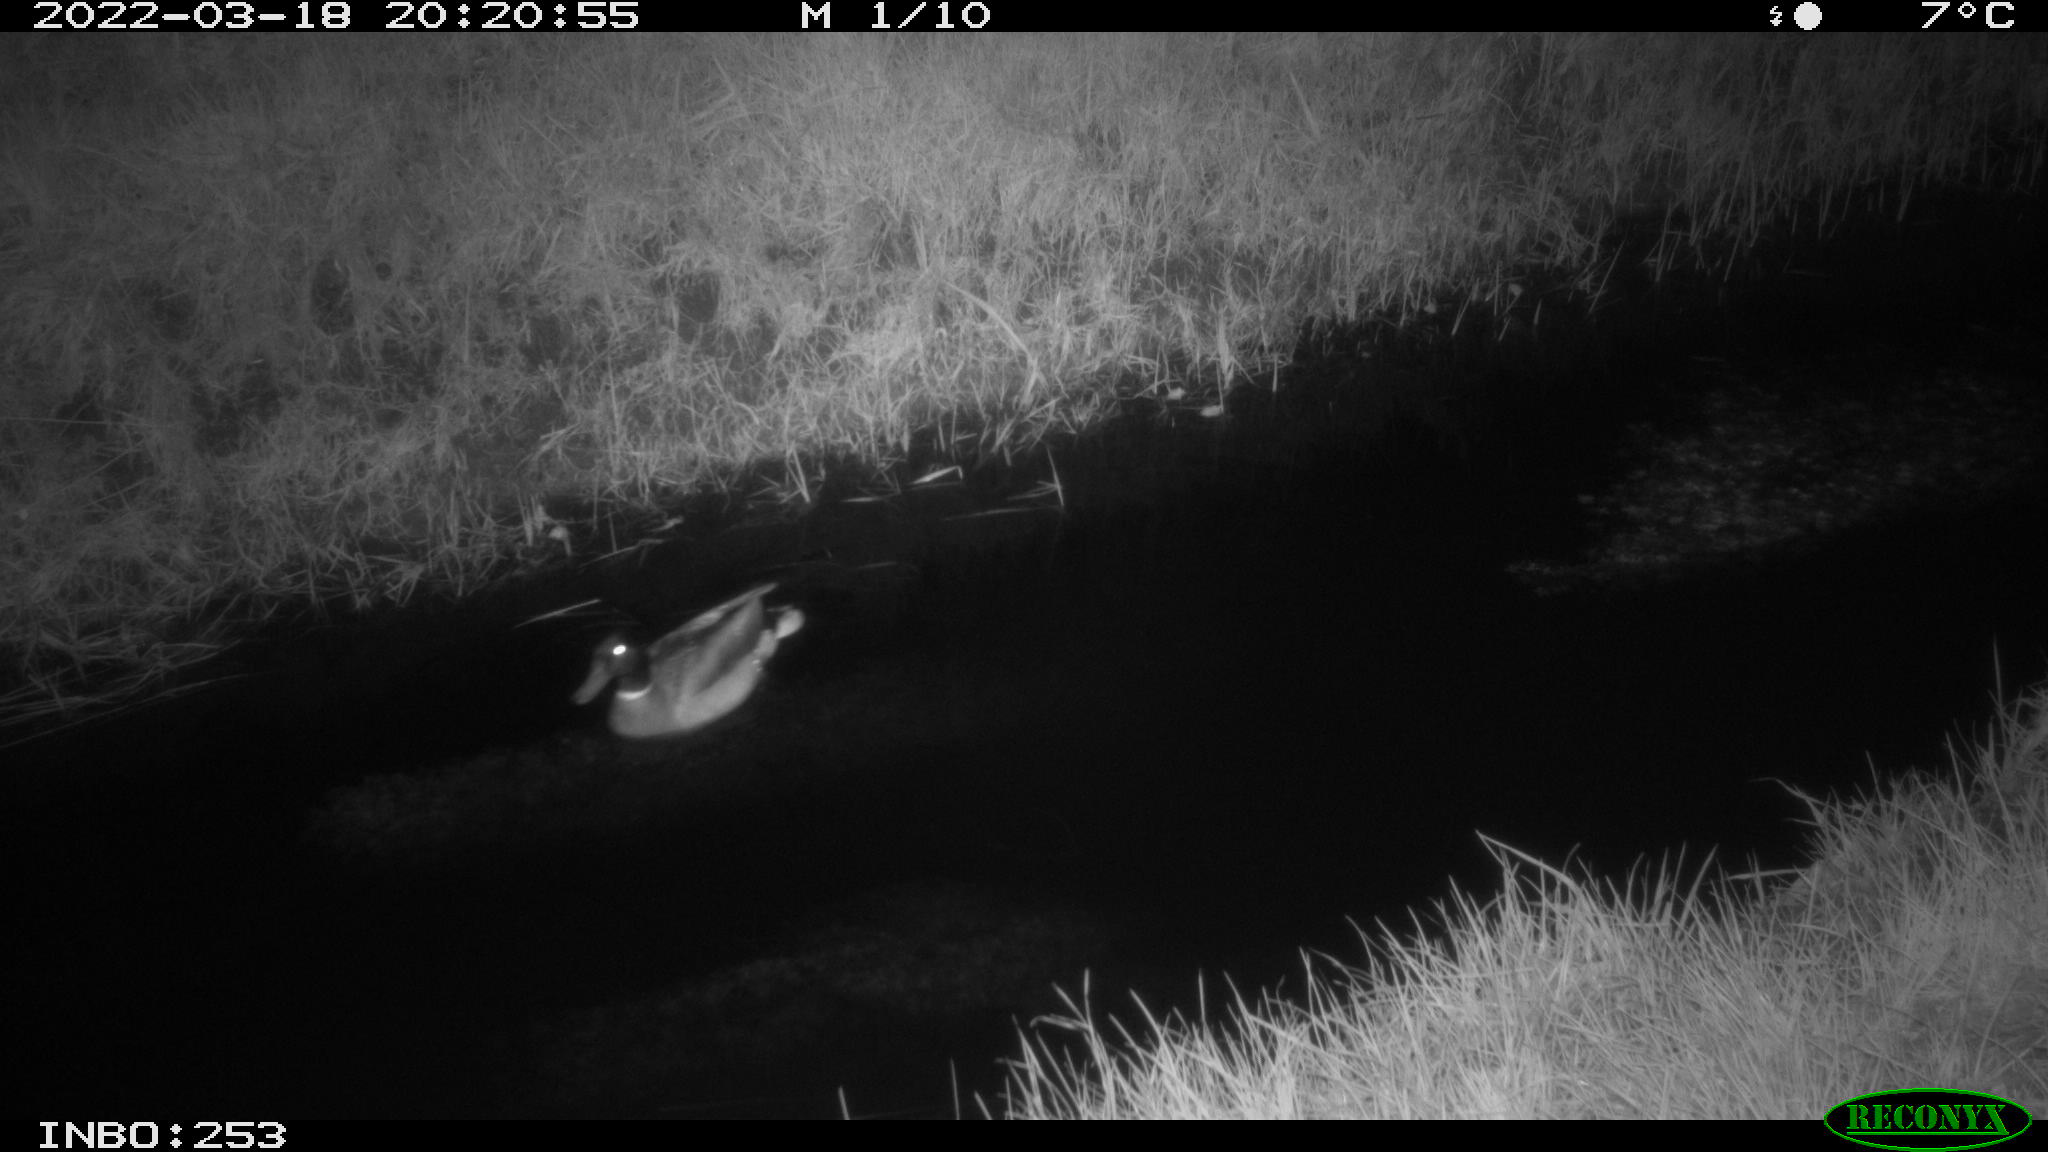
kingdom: Animalia
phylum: Chordata
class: Aves
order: Anseriformes
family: Anatidae
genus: Anas
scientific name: Anas platyrhynchos
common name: Mallard
